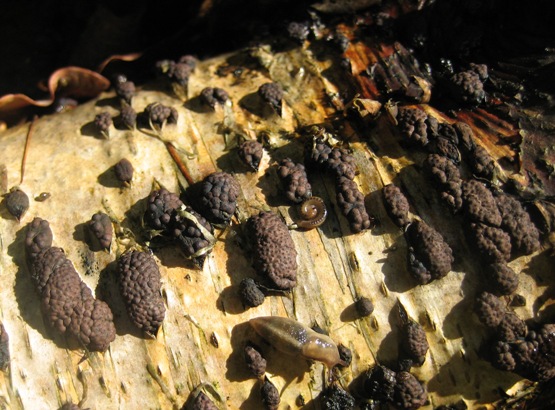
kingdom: Fungi
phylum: Ascomycota
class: Sordariomycetes
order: Xylariales
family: Hypoxylaceae
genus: Jackrogersella
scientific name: Jackrogersella multiformis
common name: foranderlig kulbær
